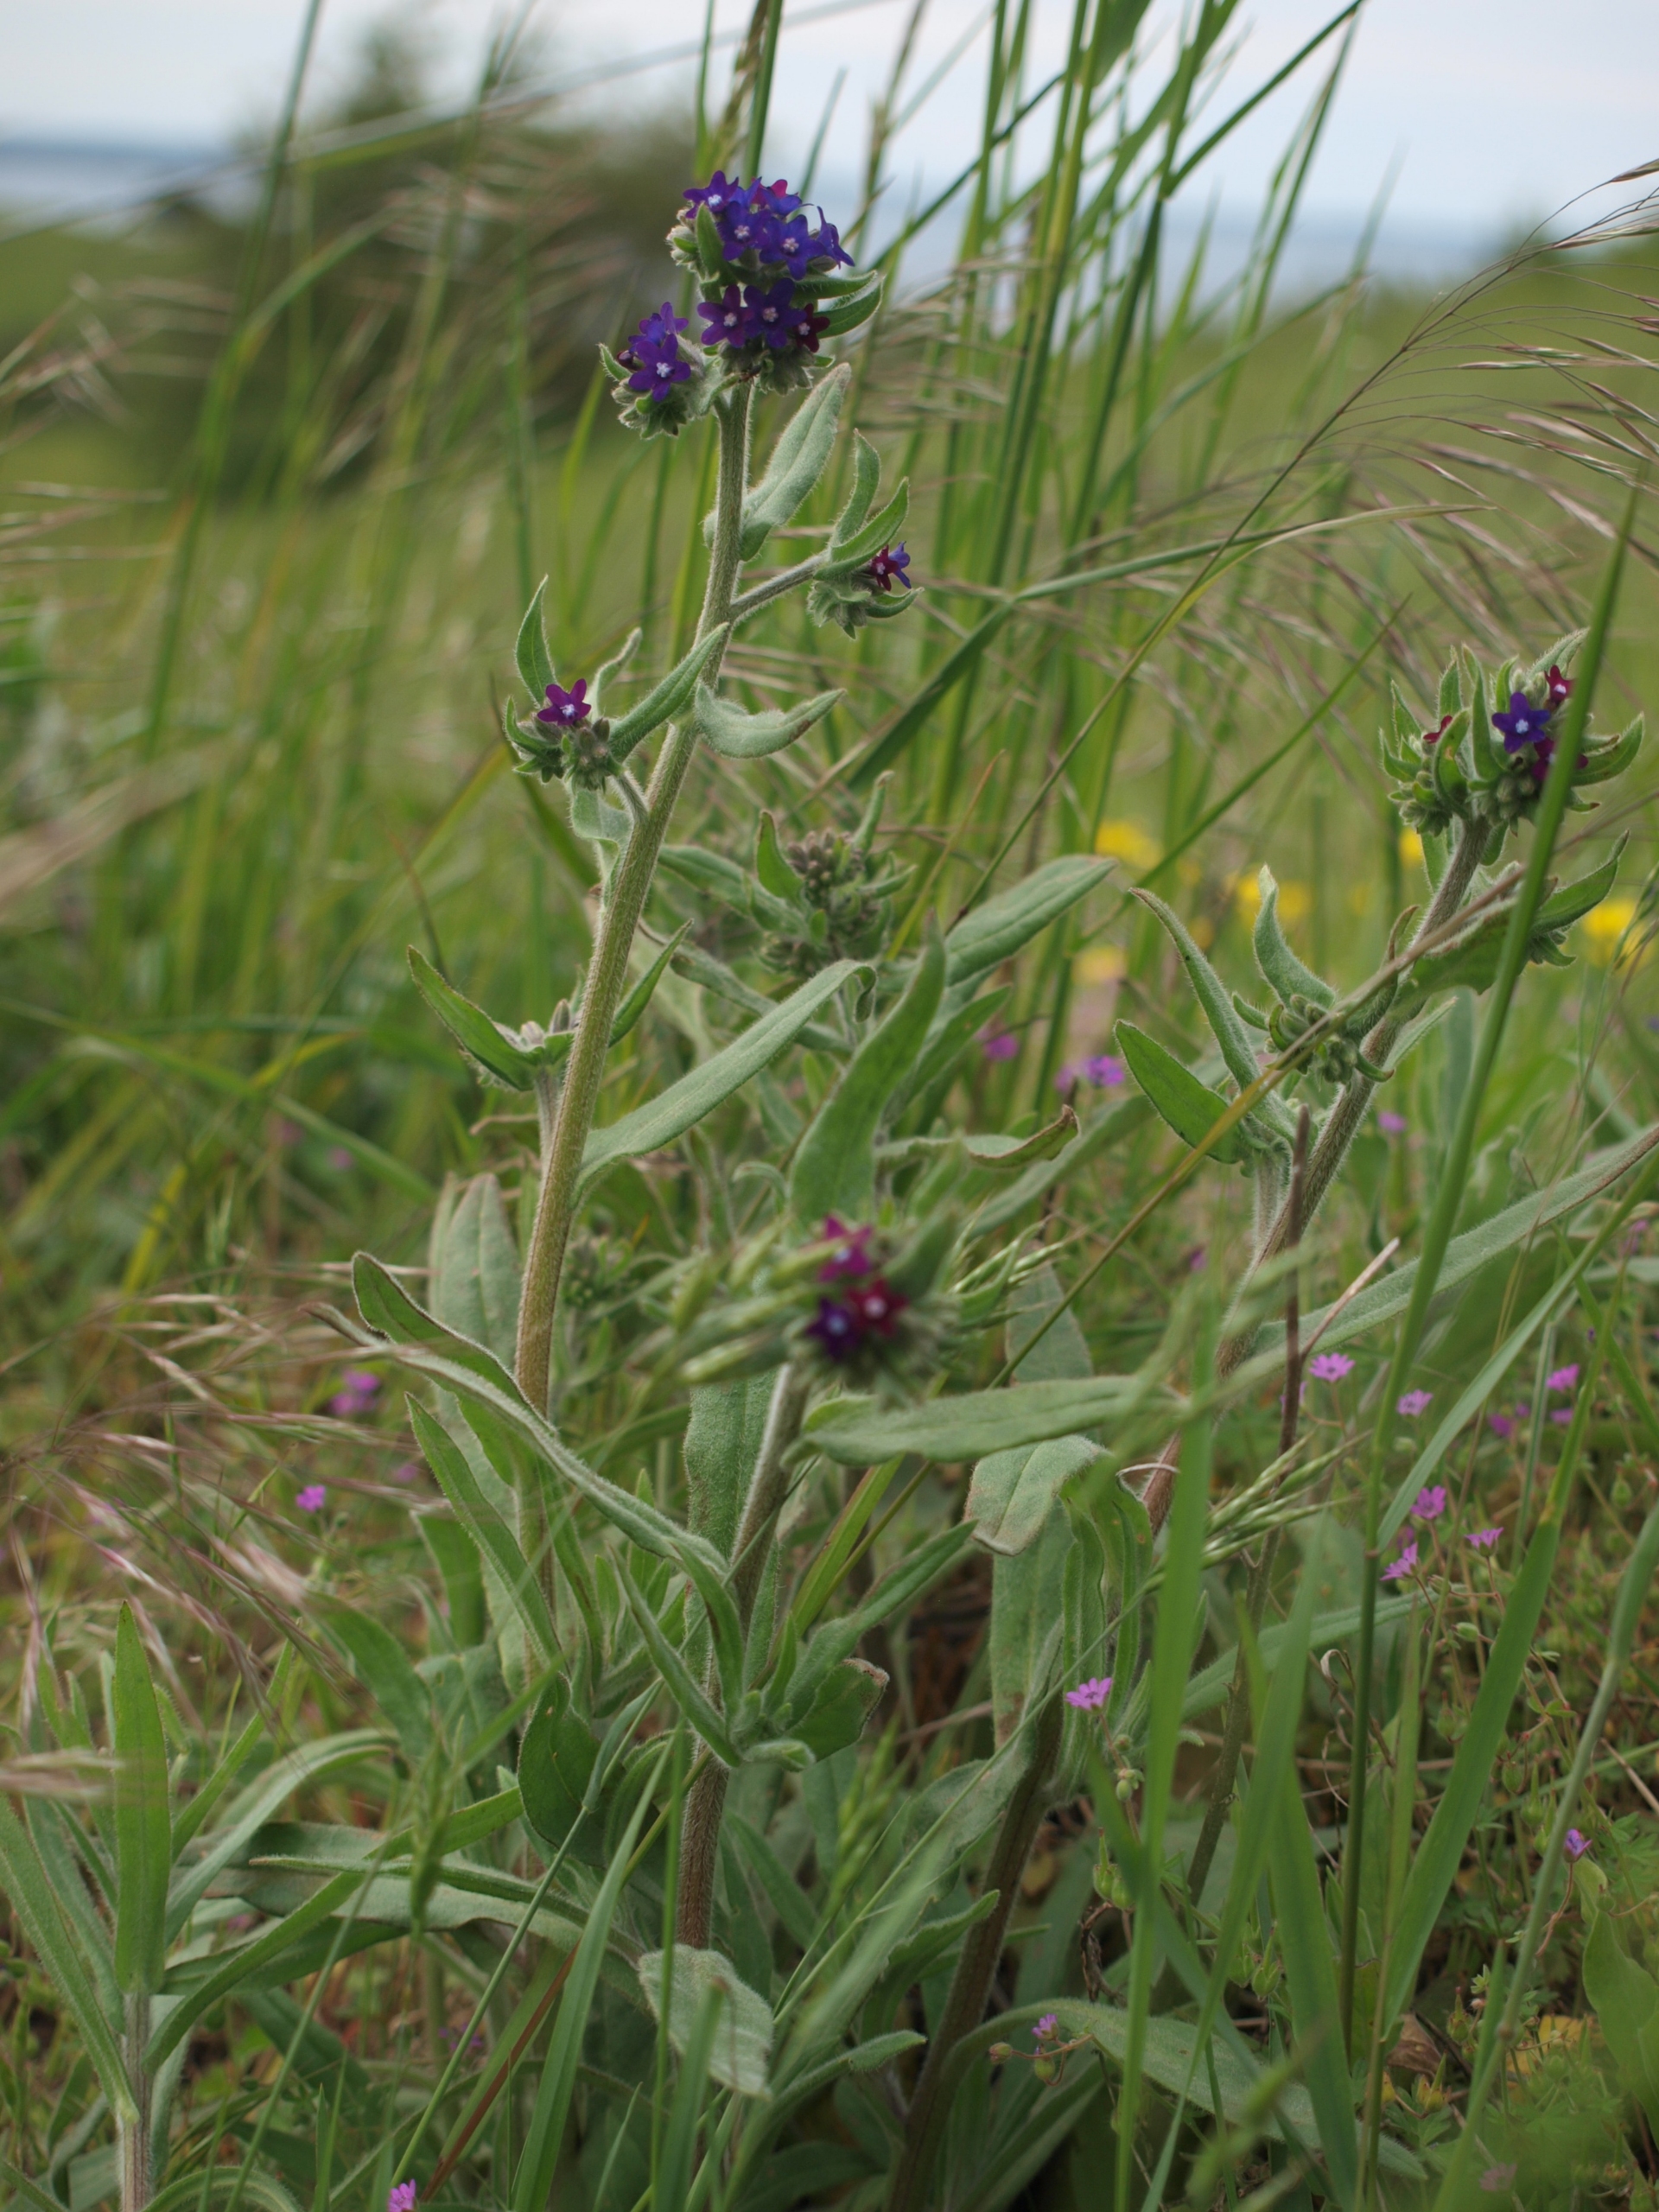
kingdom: Plantae
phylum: Tracheophyta
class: Magnoliopsida
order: Boraginales
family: Boraginaceae
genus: Anchusa
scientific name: Anchusa officinalis
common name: Læge-oksetunge
